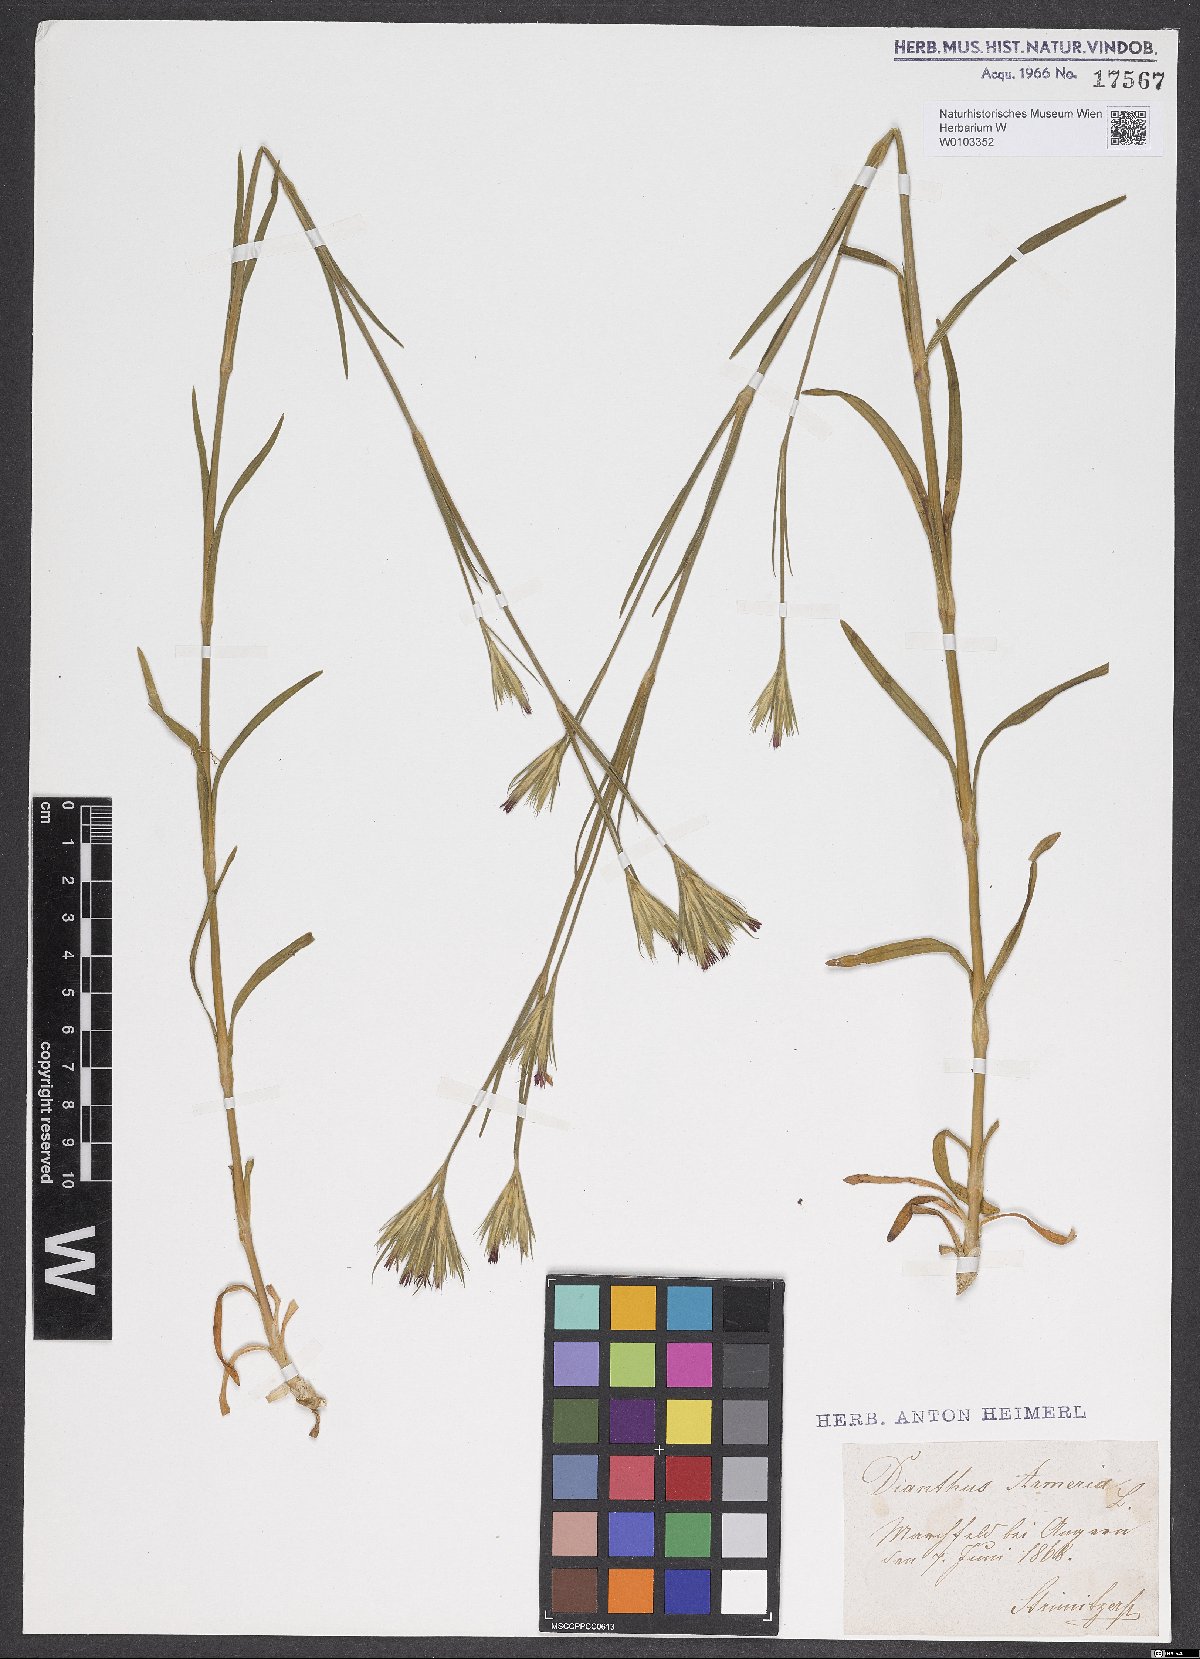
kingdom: Plantae
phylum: Tracheophyta
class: Magnoliopsida
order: Caryophyllales
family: Caryophyllaceae
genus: Dianthus
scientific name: Dianthus armeria
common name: Deptford pink
